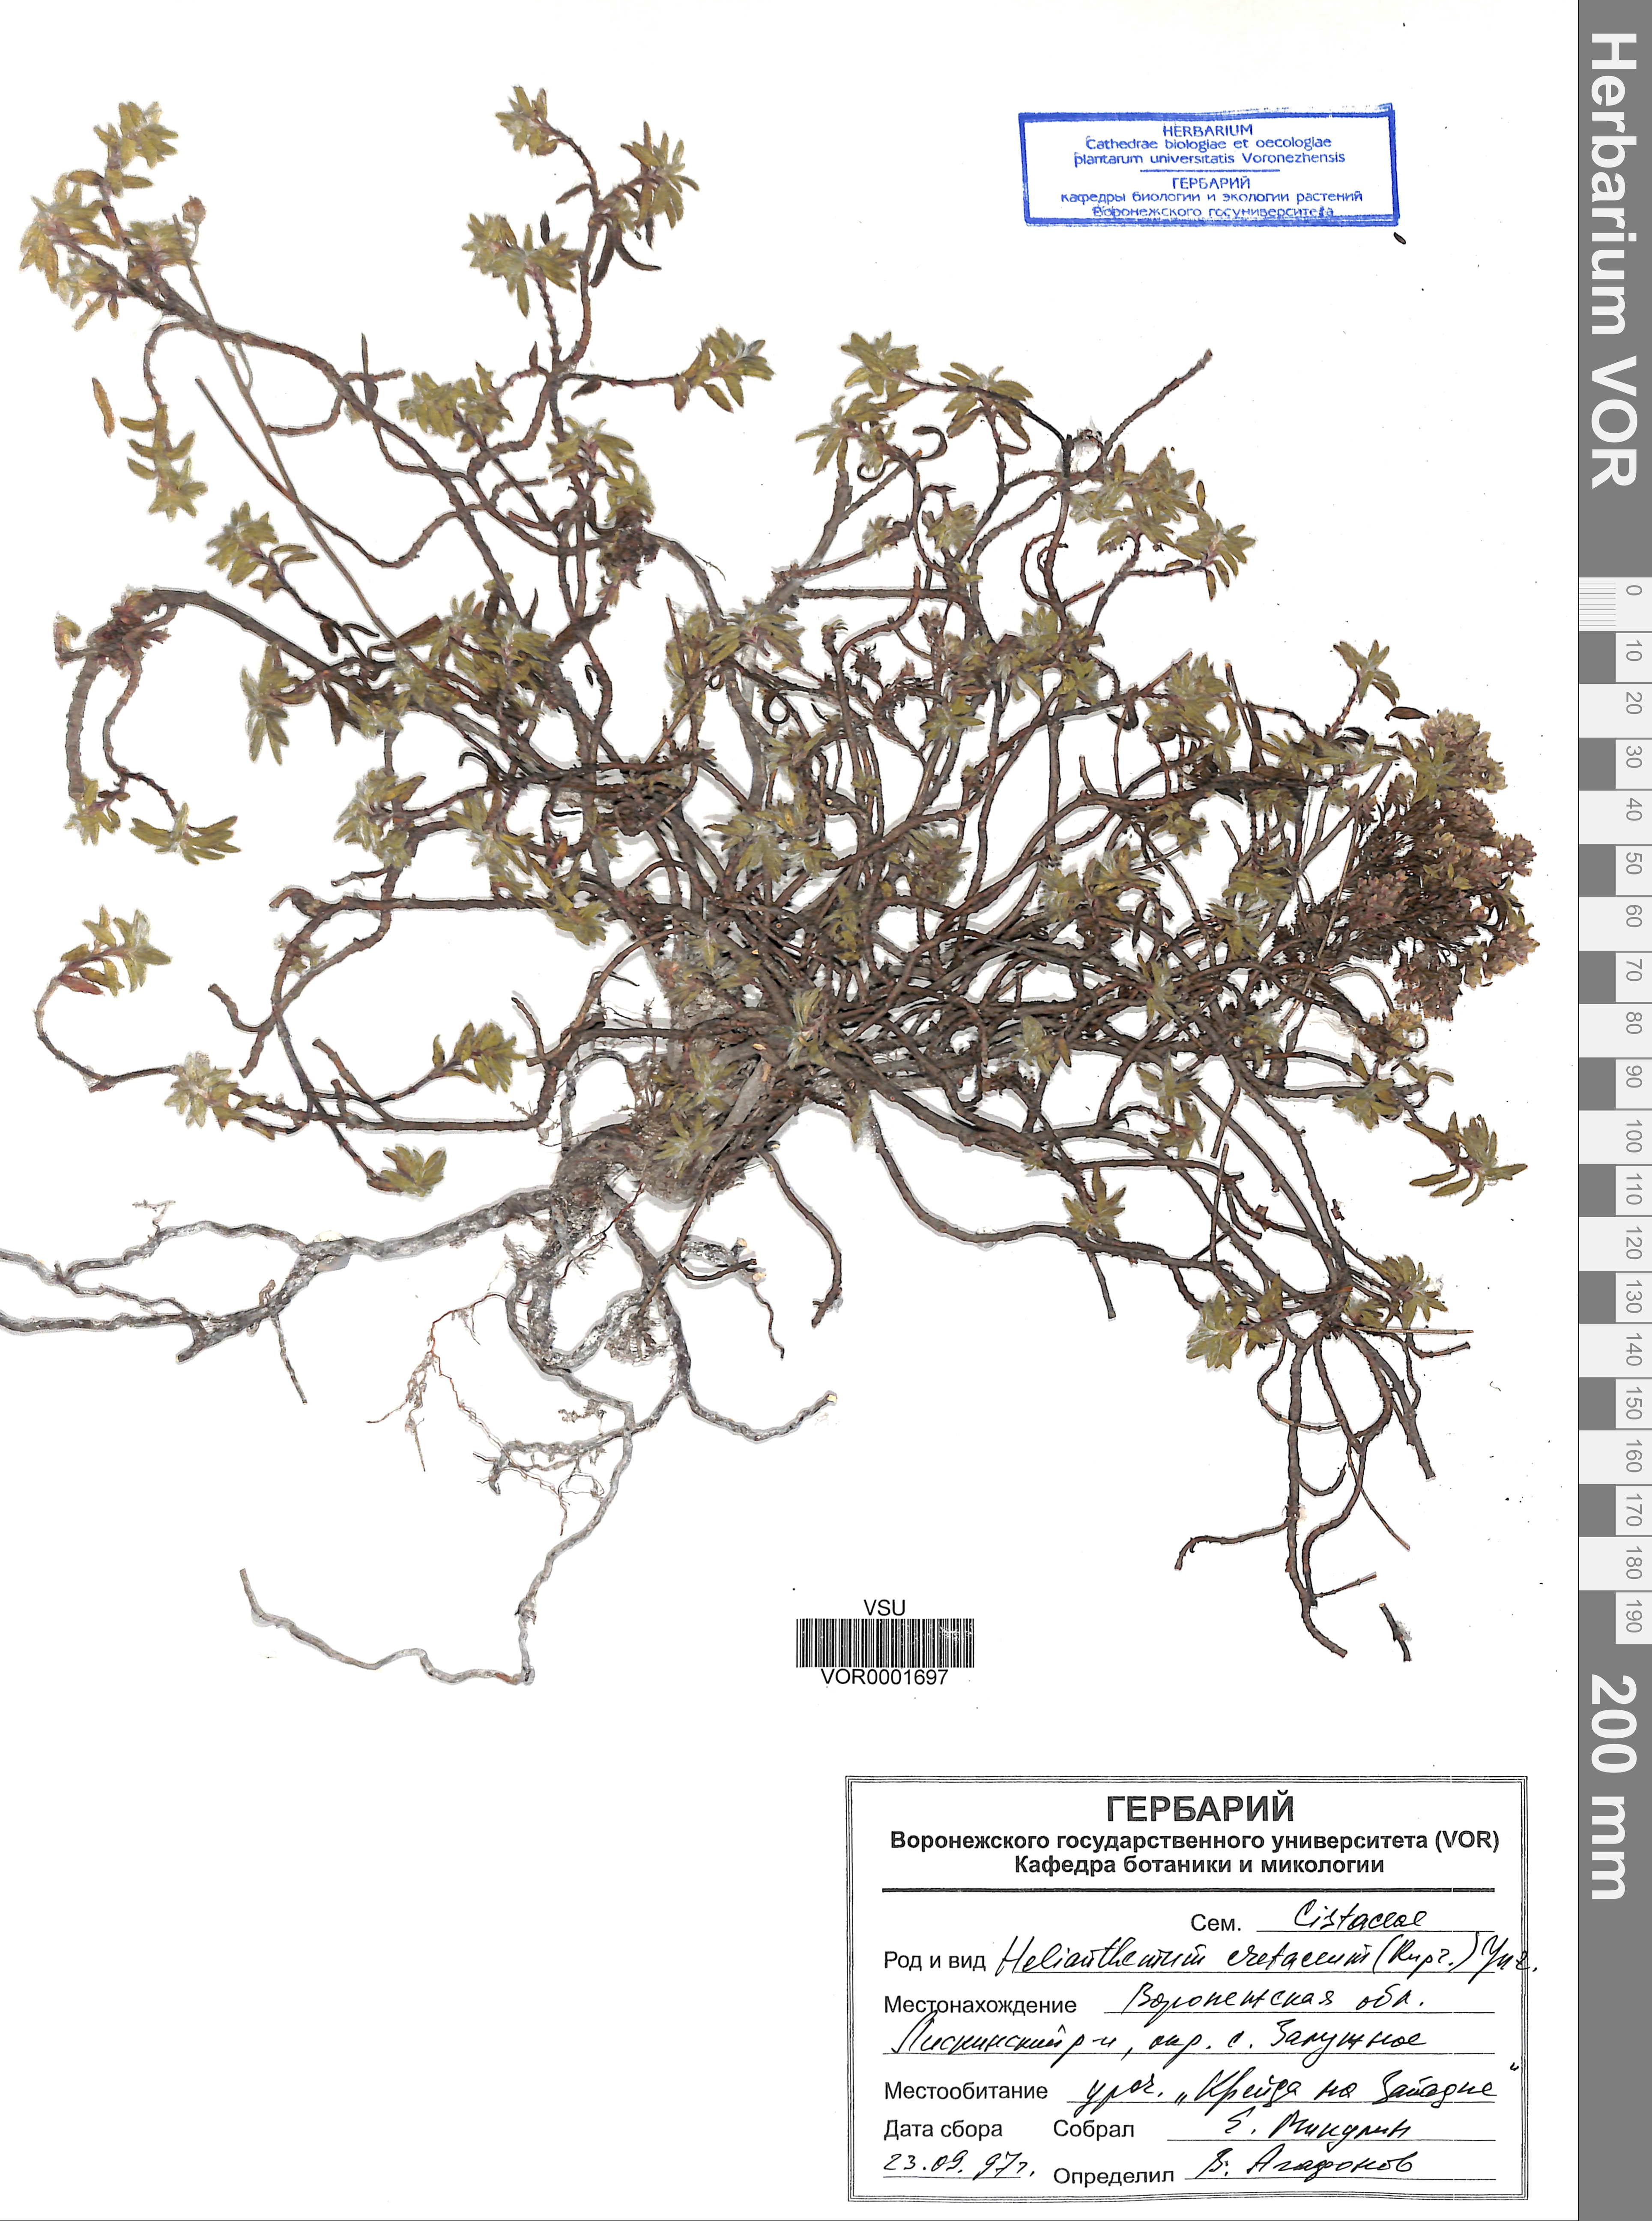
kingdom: Plantae
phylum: Tracheophyta
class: Magnoliopsida
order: Malvales
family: Cistaceae
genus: Helianthemum
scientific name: Helianthemum rupifragum
